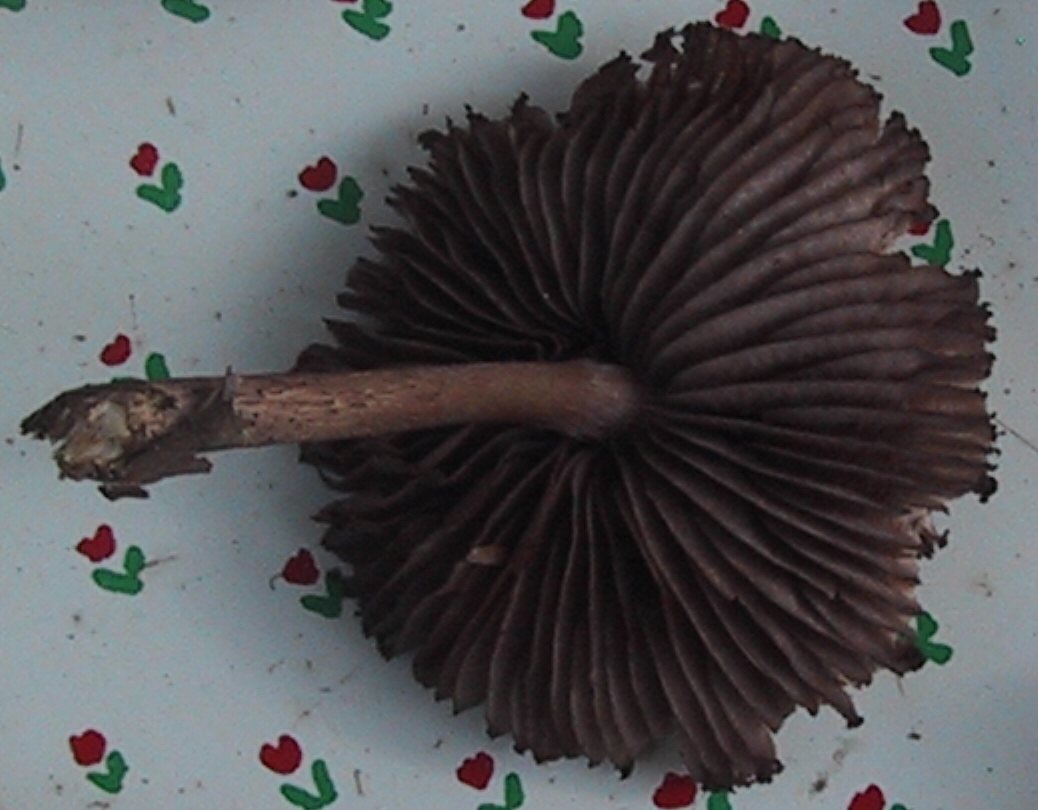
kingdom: Fungi
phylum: Basidiomycota
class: Agaricomycetes
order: Agaricales
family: Mycenaceae
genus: Mycena
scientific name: Mycena pelianthina
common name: mørkbladet huesvamp
